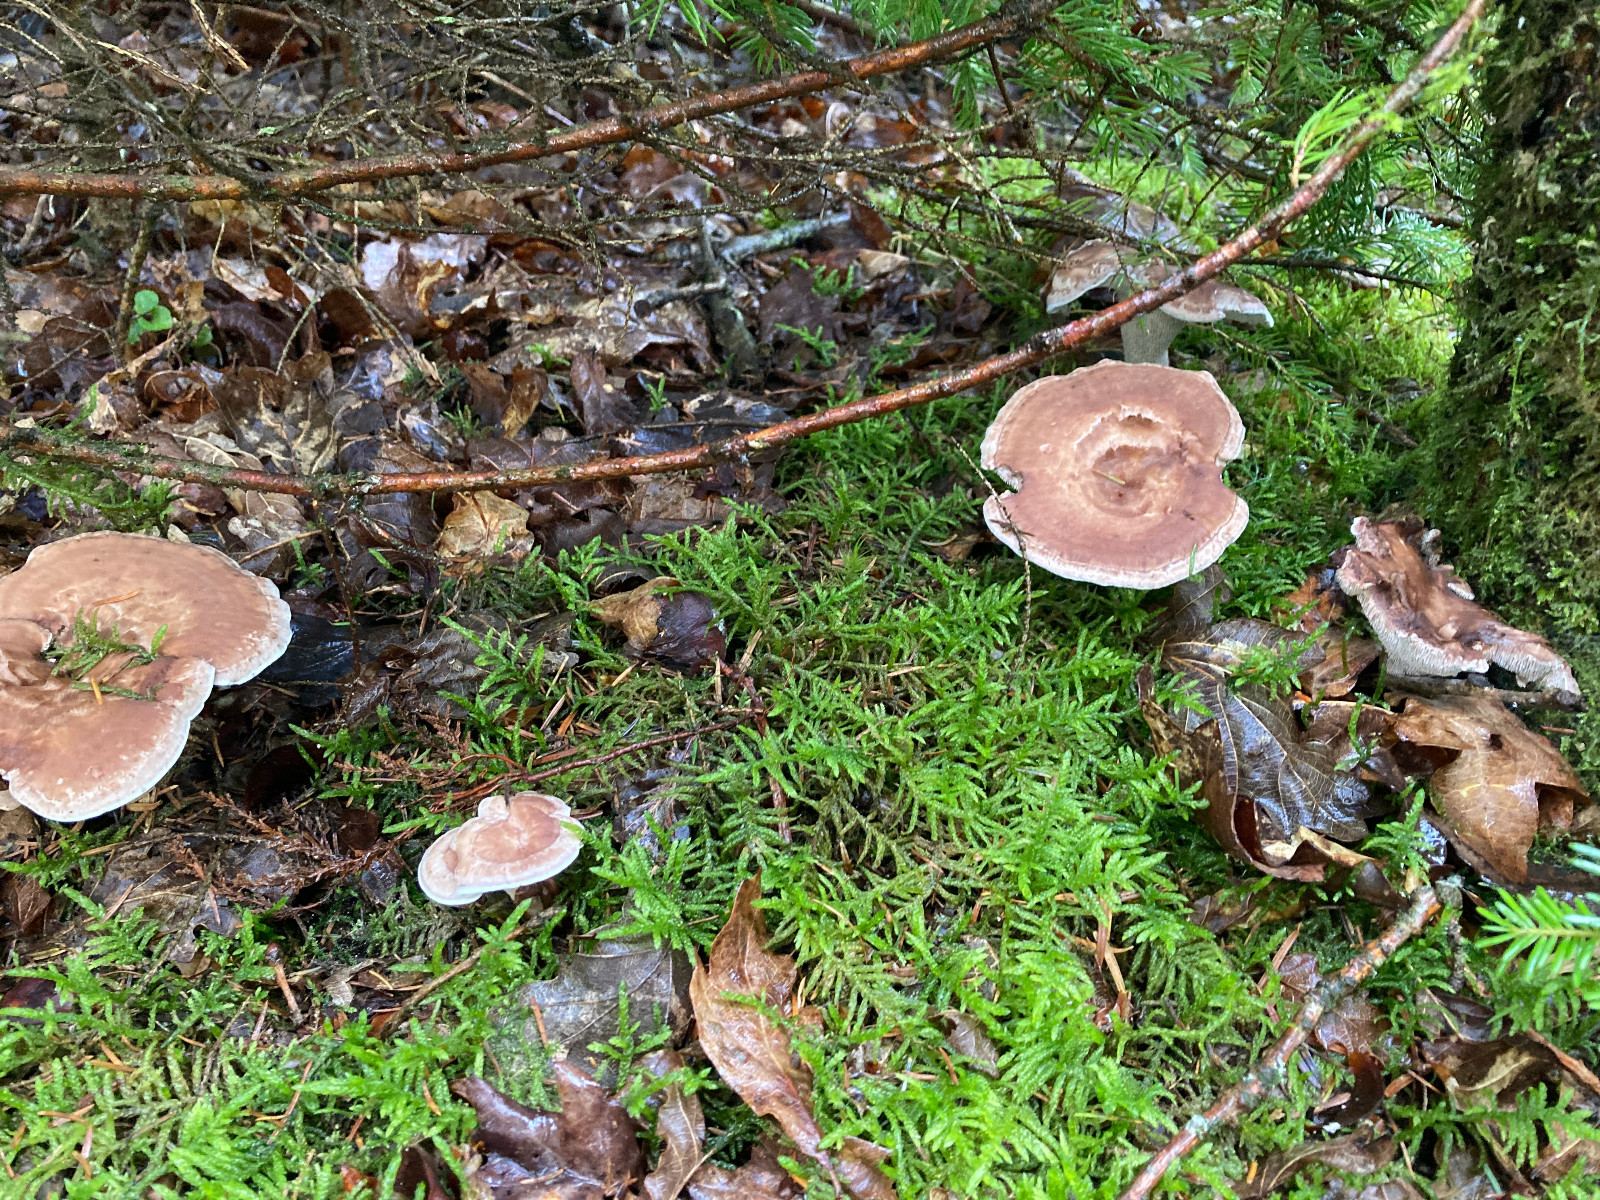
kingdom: Fungi
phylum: Basidiomycota
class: Agaricomycetes
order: Thelephorales
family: Thelephoraceae
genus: Phellodon
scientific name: Phellodon violascens
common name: violetbrun duftpigsvamp
